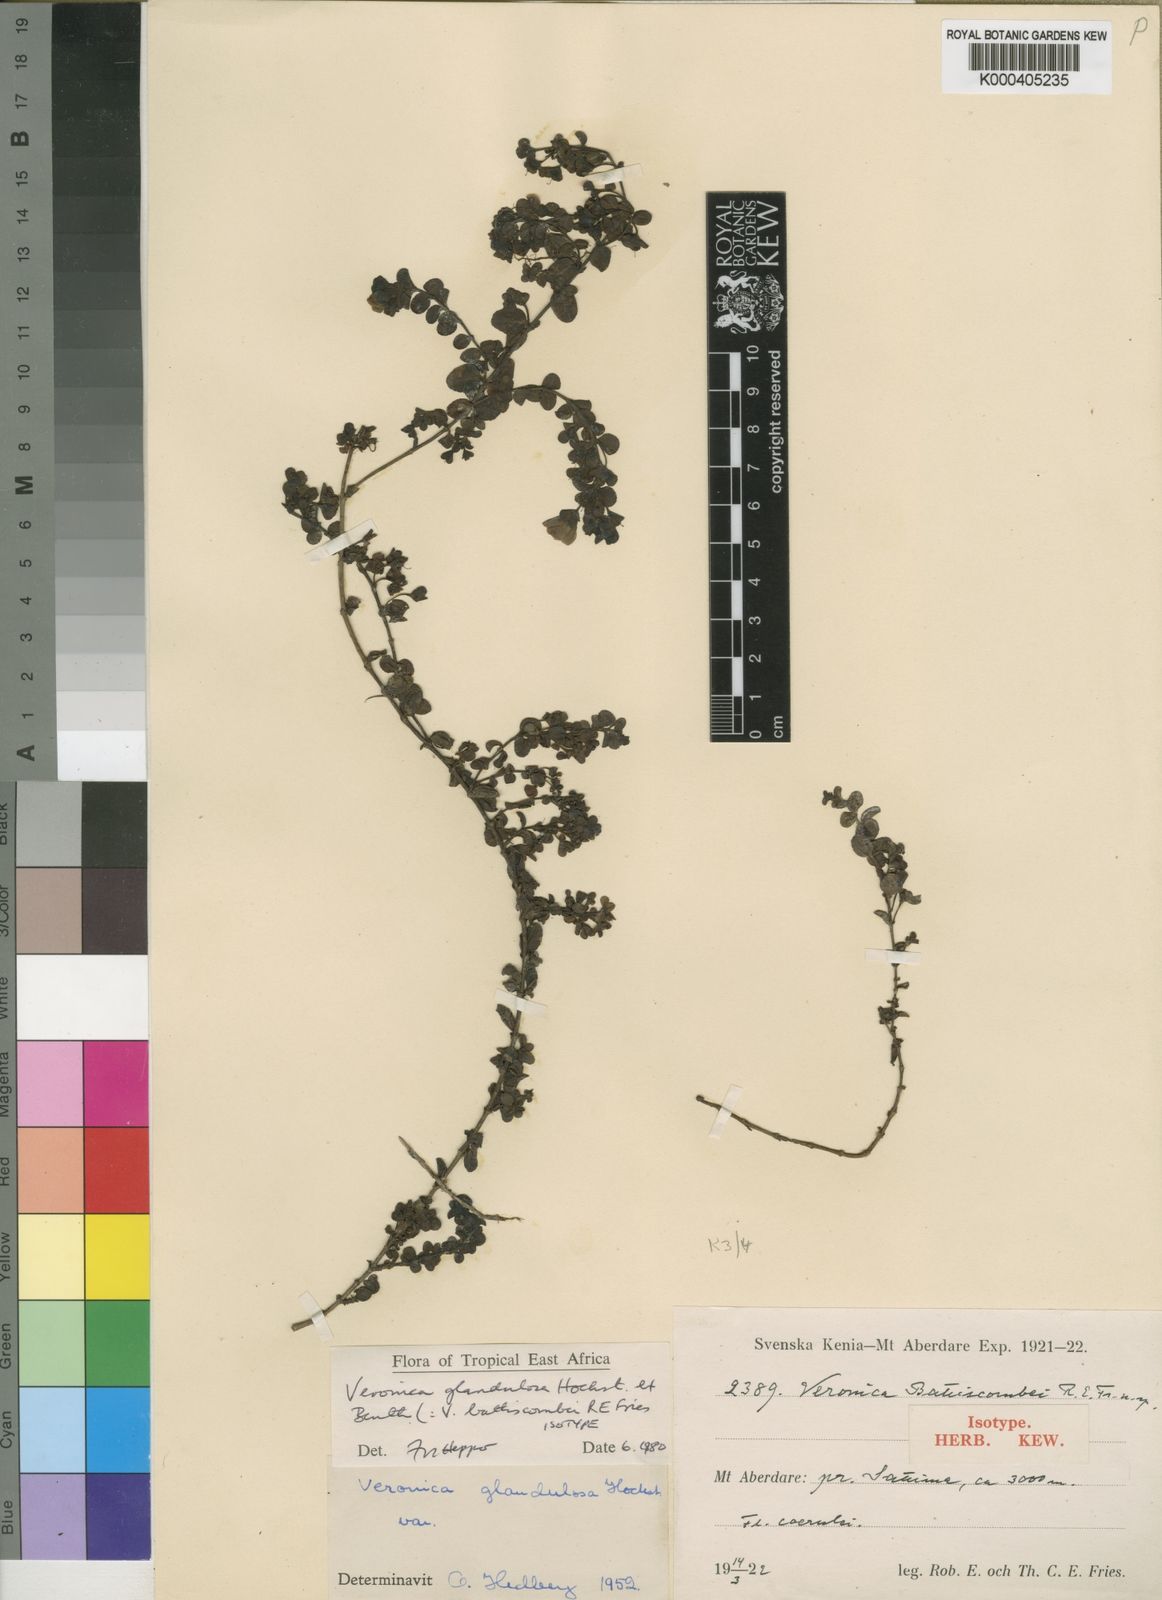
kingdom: Plantae
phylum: Tracheophyta
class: Magnoliopsida
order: Lamiales
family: Plantaginaceae
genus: Veronica
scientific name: Veronica glandulosa
